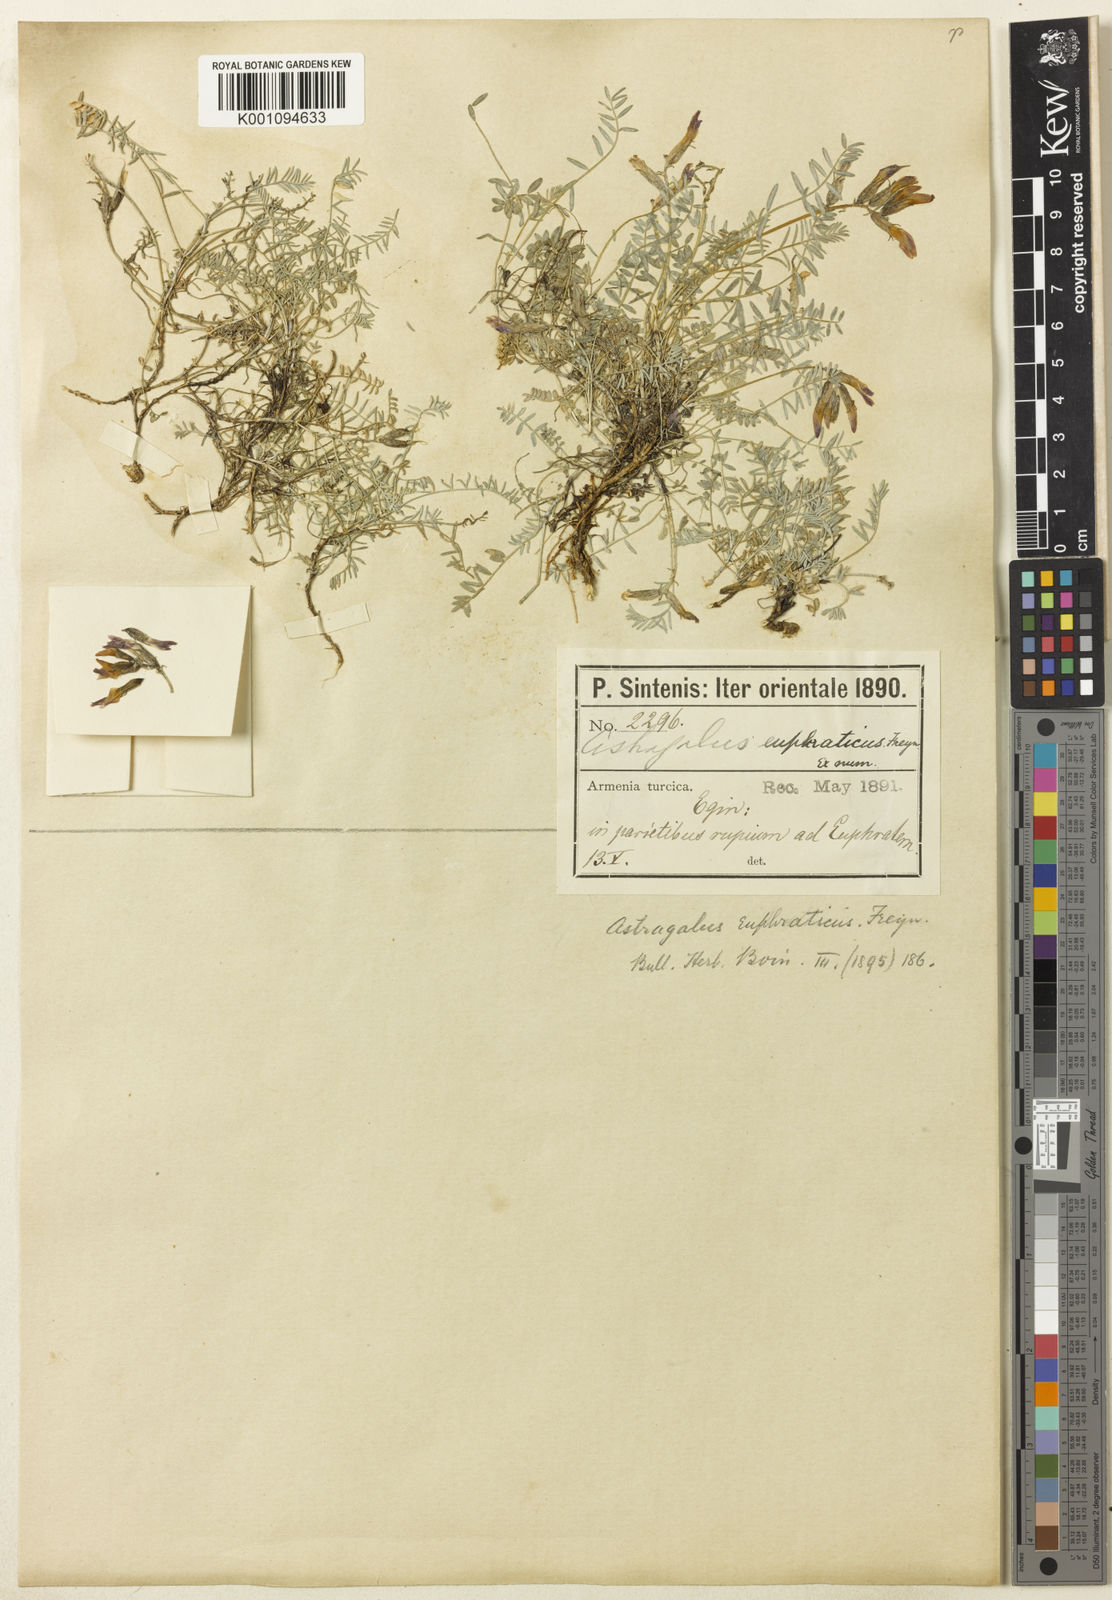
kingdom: Plantae
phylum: Tracheophyta
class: Magnoliopsida
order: Fabales
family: Fabaceae
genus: Astragalus
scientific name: Astragalus
